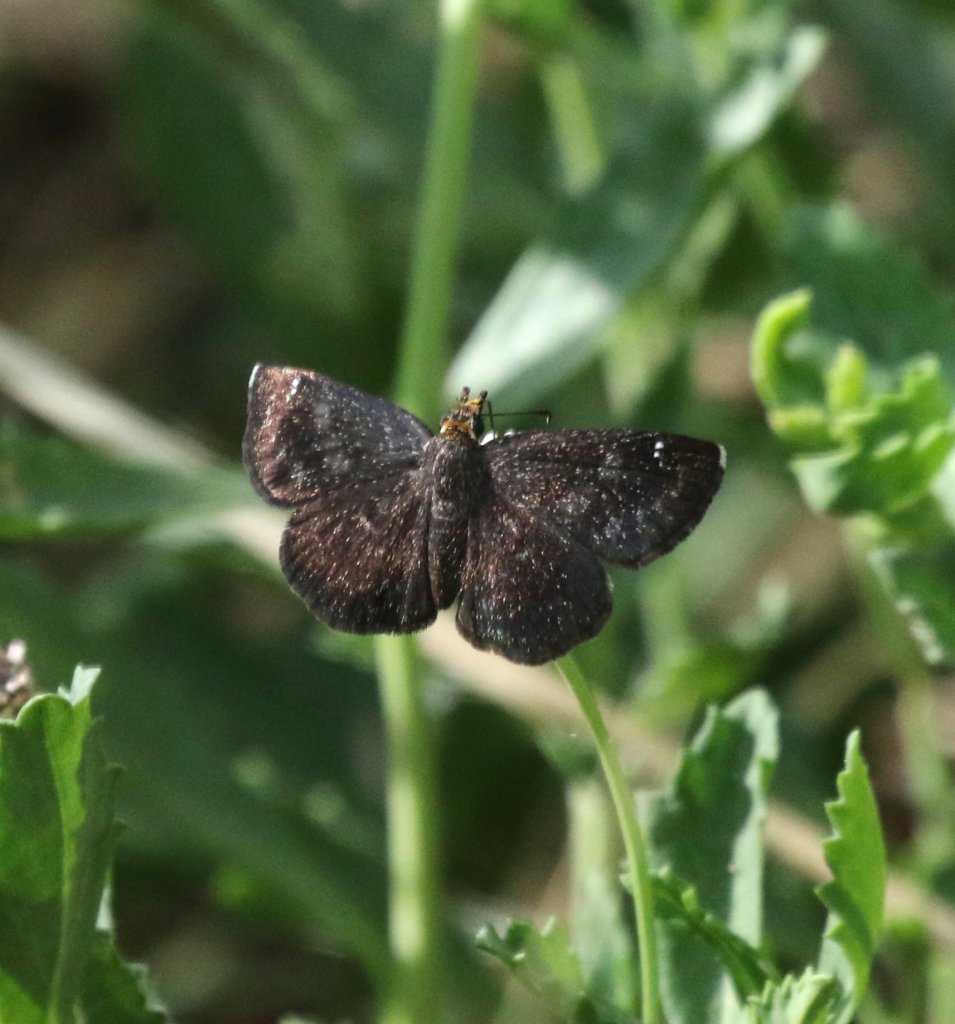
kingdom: Animalia
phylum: Arthropoda
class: Insecta
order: Lepidoptera
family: Hesperiidae
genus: Staphylus
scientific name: Staphylus ceos
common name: Golden-headed Scallopwing
